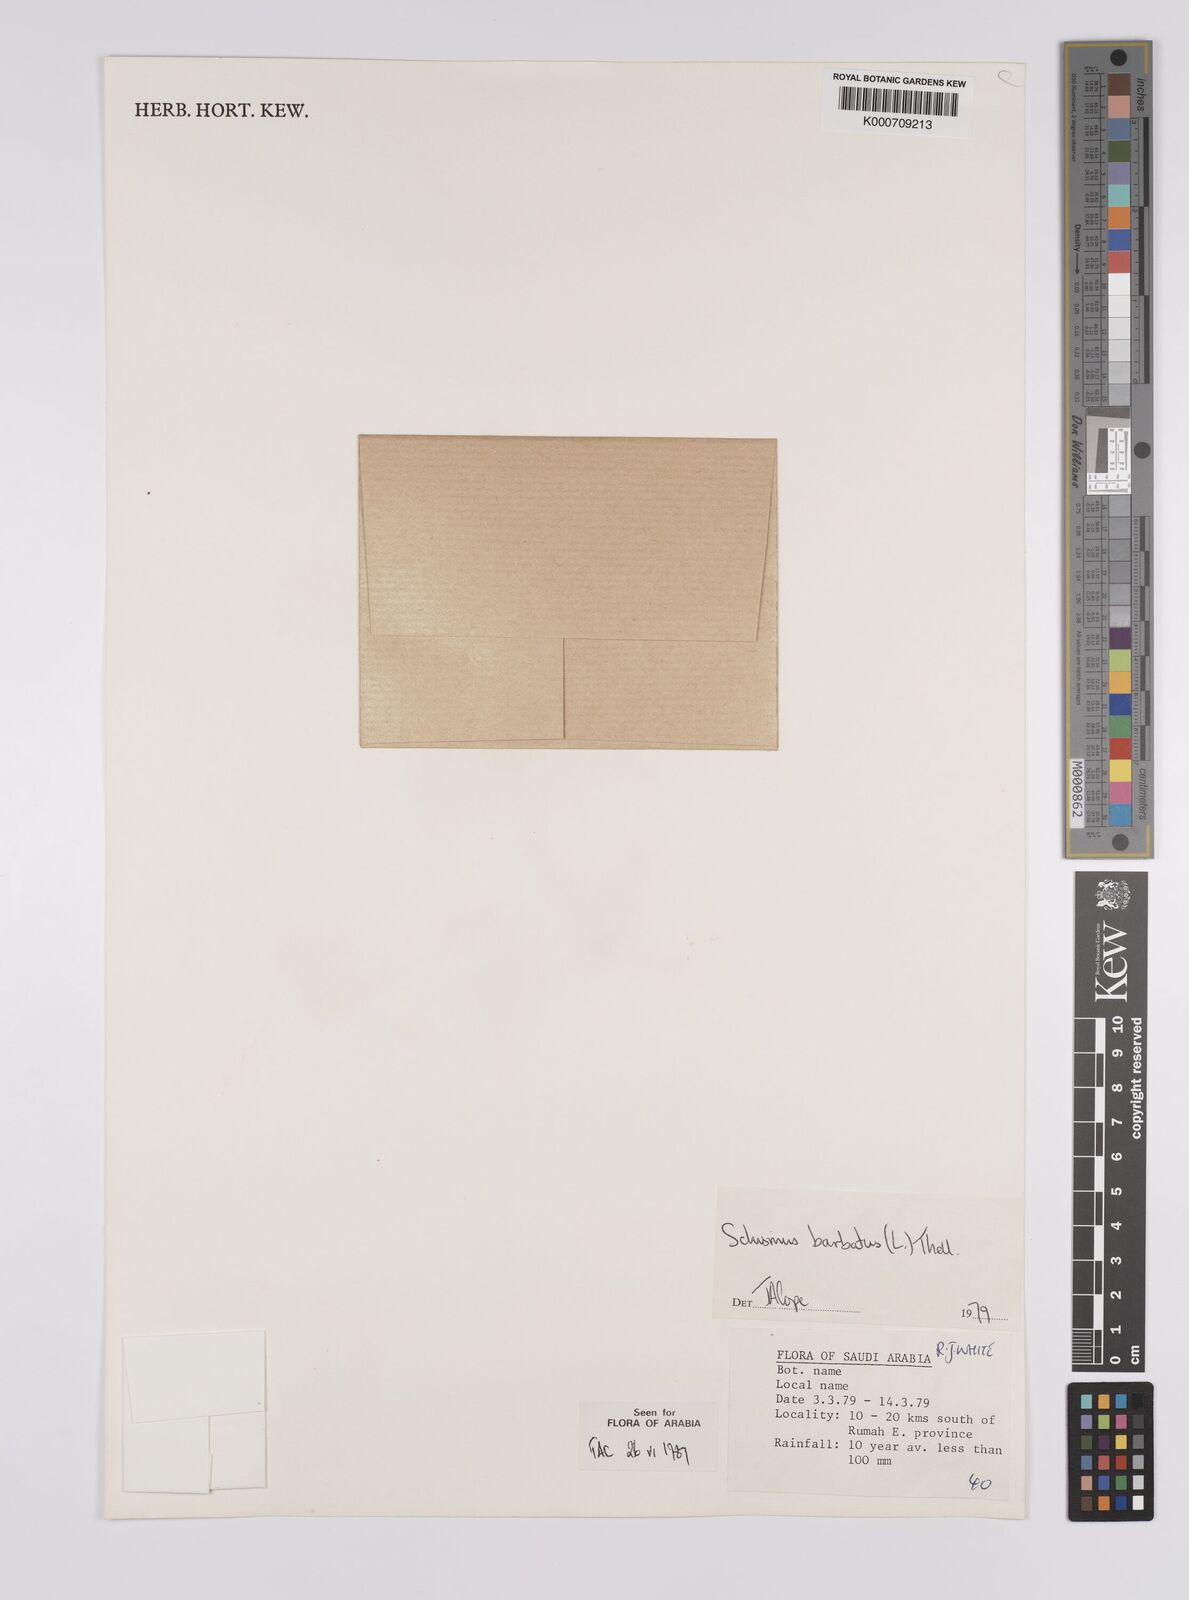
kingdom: Plantae
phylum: Tracheophyta
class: Liliopsida
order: Poales
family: Poaceae
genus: Schismus
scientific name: Schismus barbatus
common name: Kelch-grass
